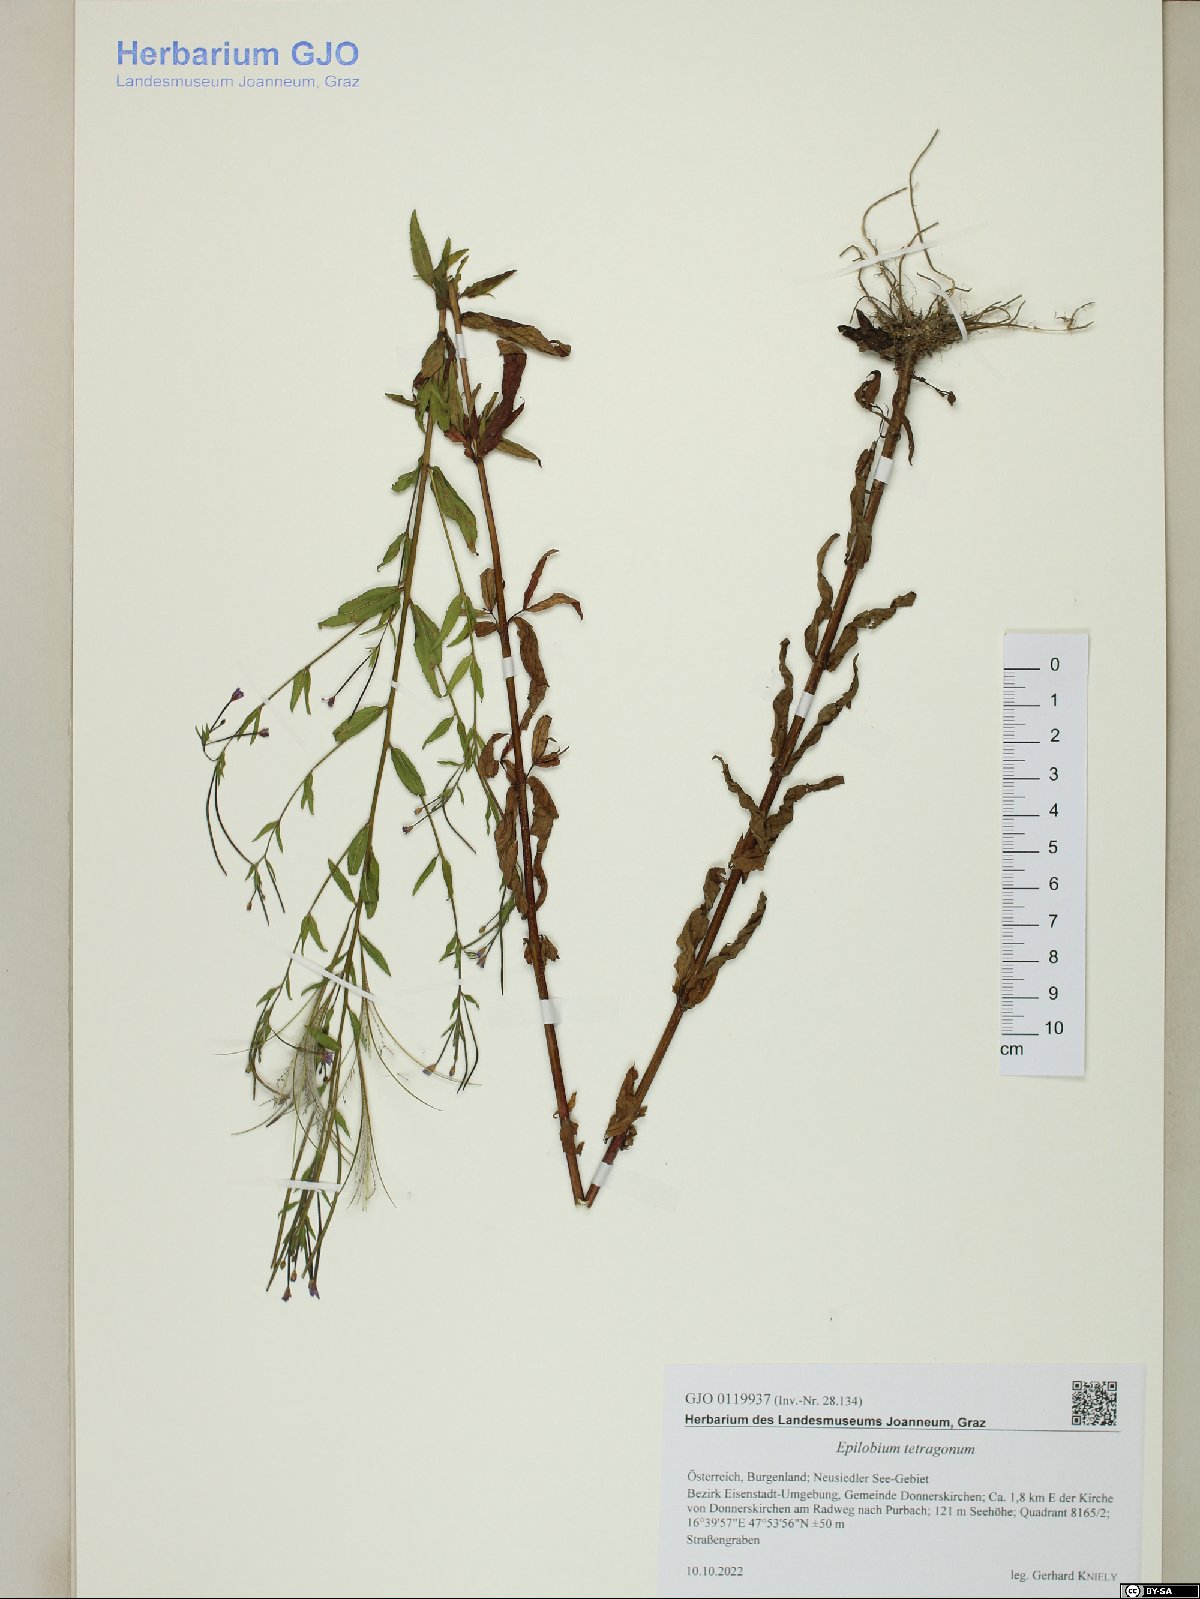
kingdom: Plantae
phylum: Tracheophyta
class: Magnoliopsida
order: Myrtales
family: Onagraceae
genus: Epilobium
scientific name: Epilobium tetragonum
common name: Square-stemmed willowherb
